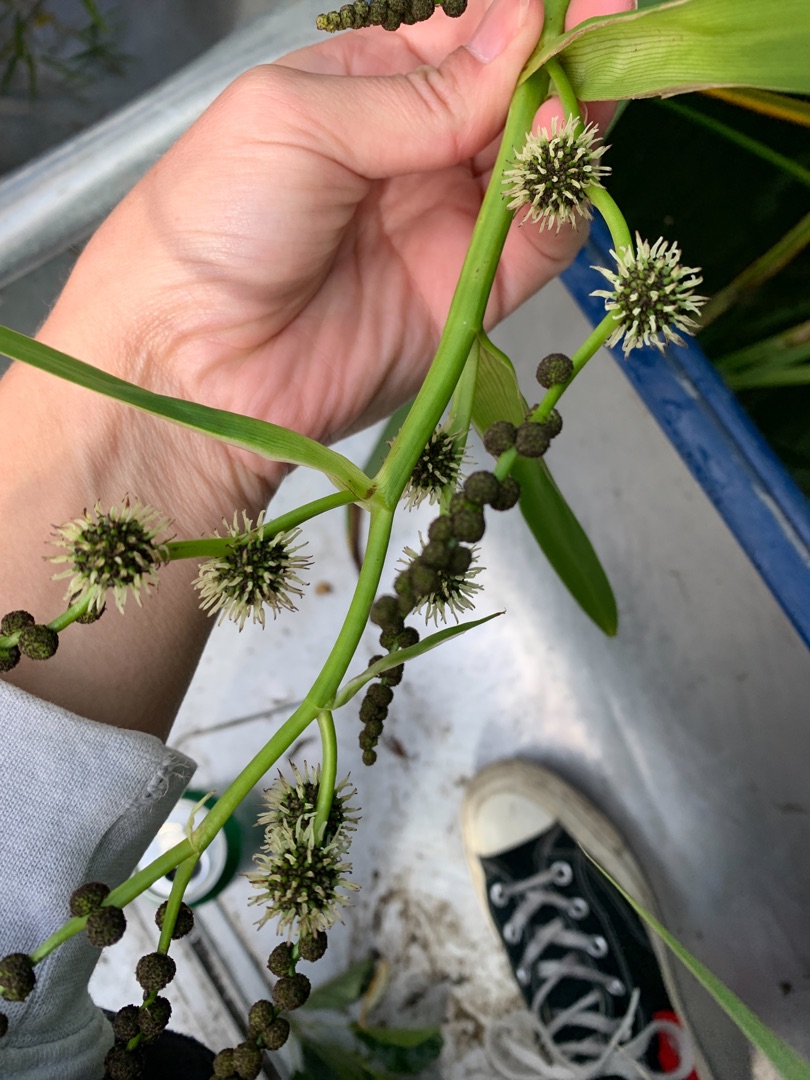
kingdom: Plantae
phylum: Tracheophyta
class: Liliopsida
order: Poales
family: Typhaceae
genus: Sparganium
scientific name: Sparganium erectum
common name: Grenet pindsvineknop
